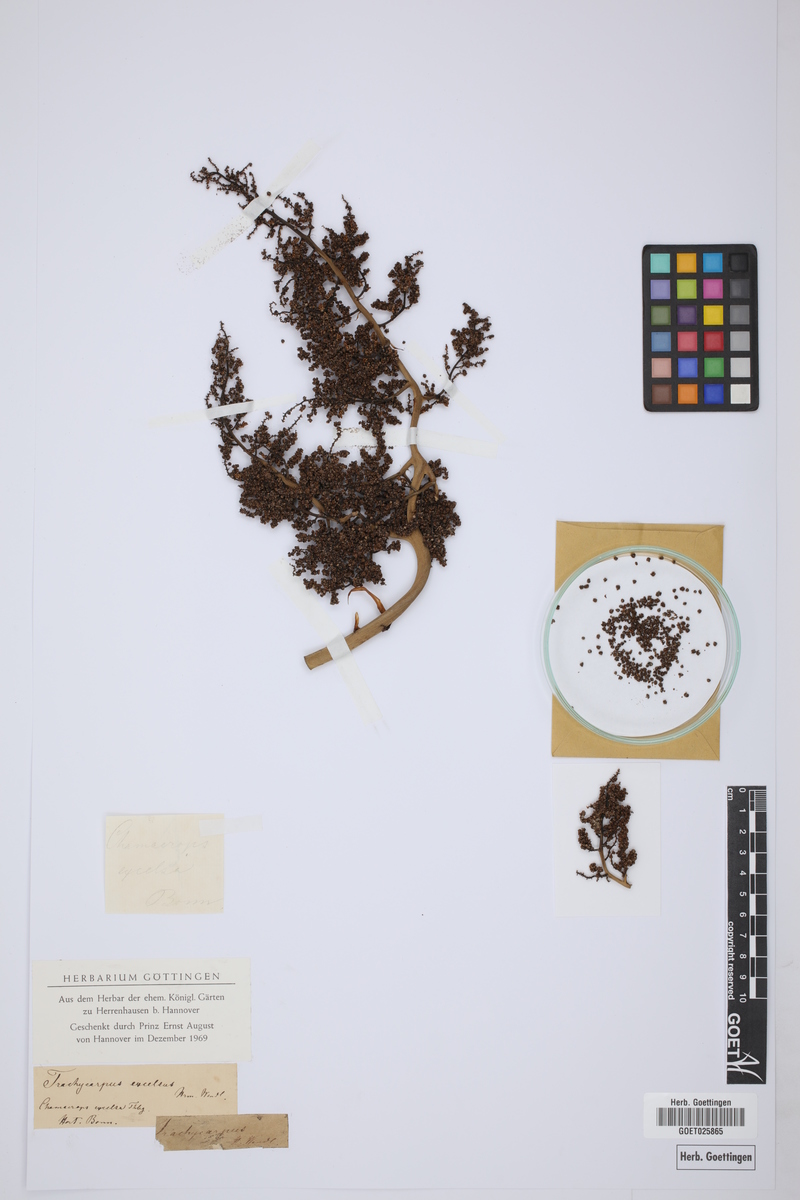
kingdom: Plantae
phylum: Tracheophyta
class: Liliopsida
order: Arecales
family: Arecaceae
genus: Rhapis
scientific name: Rhapis excelsa
